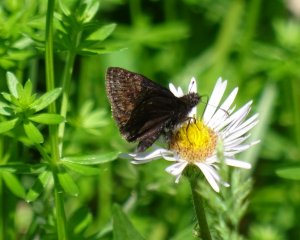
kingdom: Animalia
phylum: Arthropoda
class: Insecta
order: Lepidoptera
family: Hesperiidae
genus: Erynnis
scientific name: Erynnis
